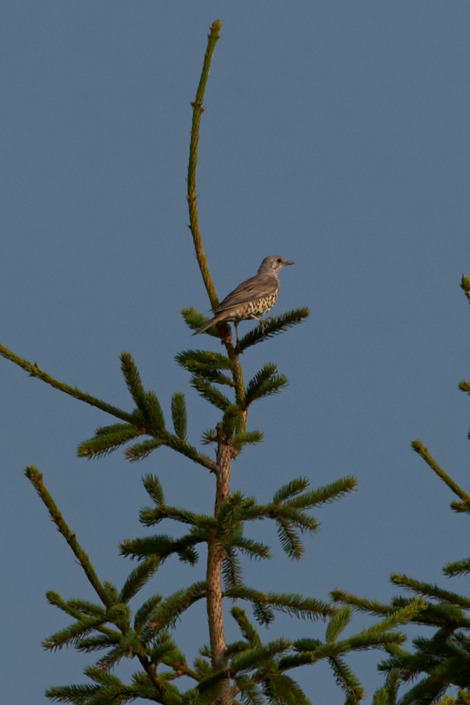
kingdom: Animalia
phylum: Chordata
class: Aves
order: Passeriformes
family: Turdidae
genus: Turdus
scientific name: Turdus viscivorus
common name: Misteldrossel
